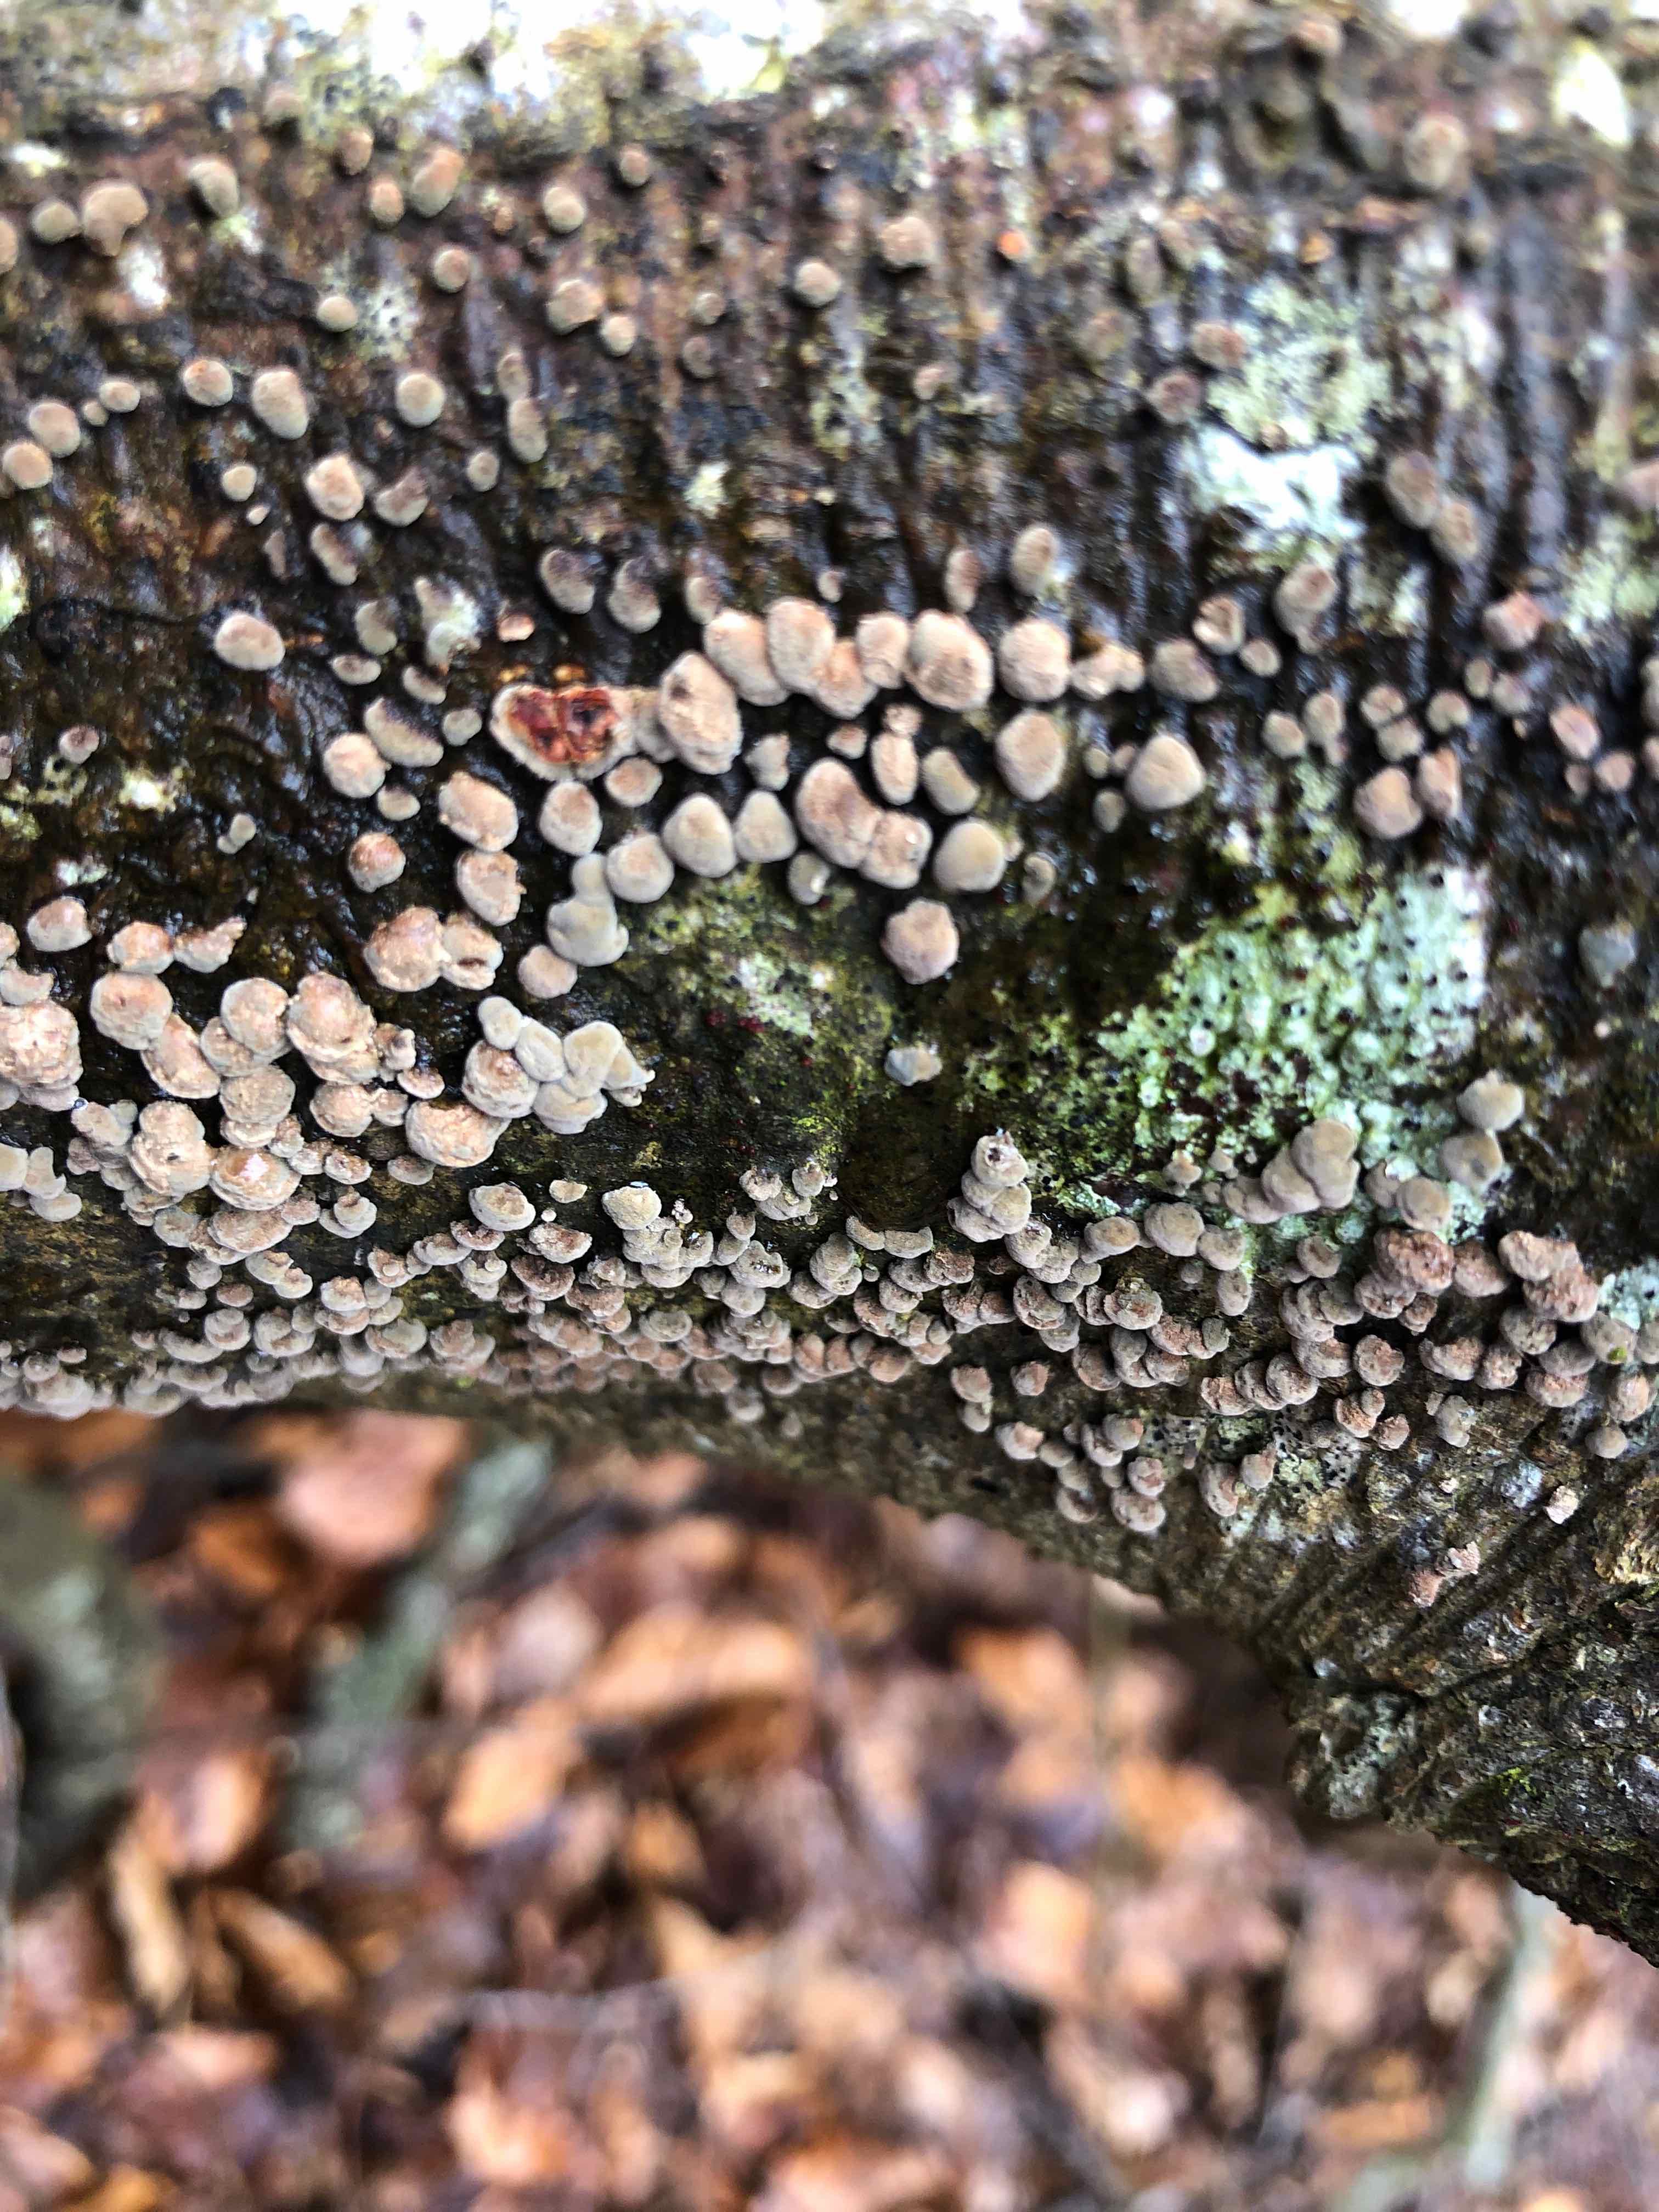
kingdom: Fungi
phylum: Ascomycota
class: Sordariomycetes
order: Xylariales
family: Hypoxylaceae
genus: Hypoxylon
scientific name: Hypoxylon fragiforme
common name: kuljordbær
